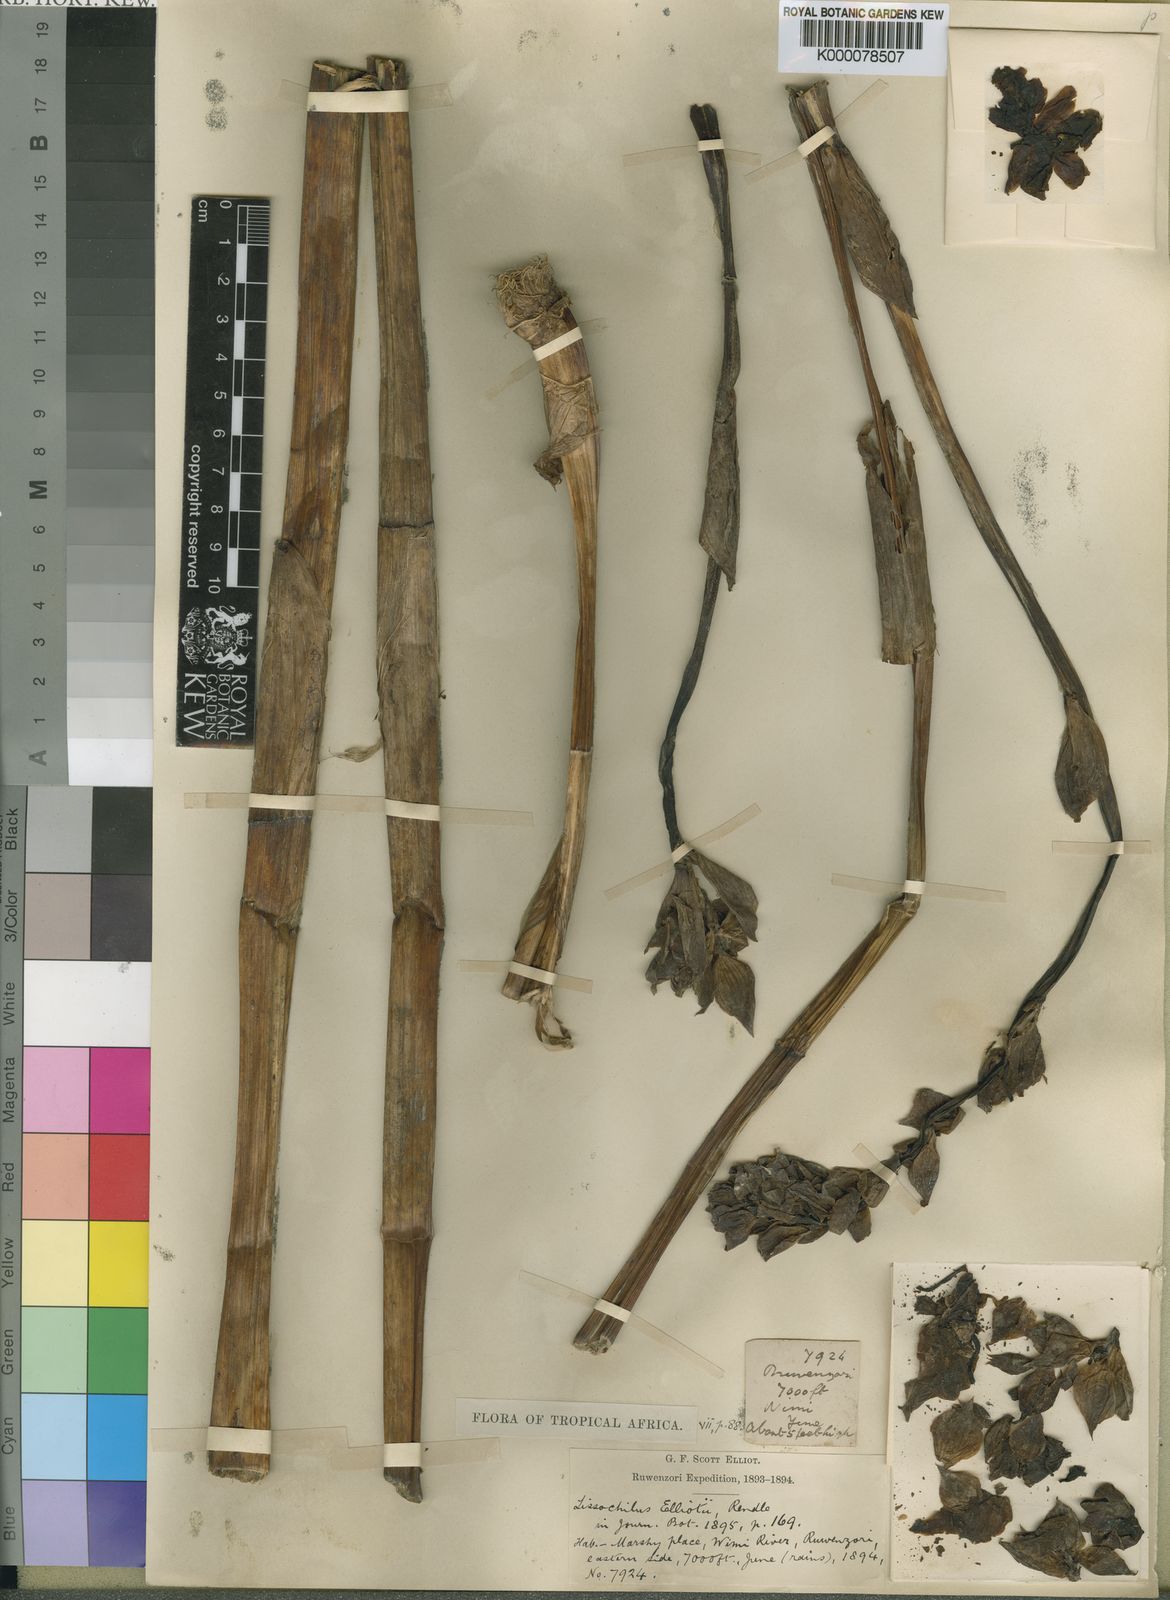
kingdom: Plantae
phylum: Tracheophyta
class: Liliopsida
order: Asparagales
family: Orchidaceae
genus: Eulophia
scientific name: Eulophia horsfallii
